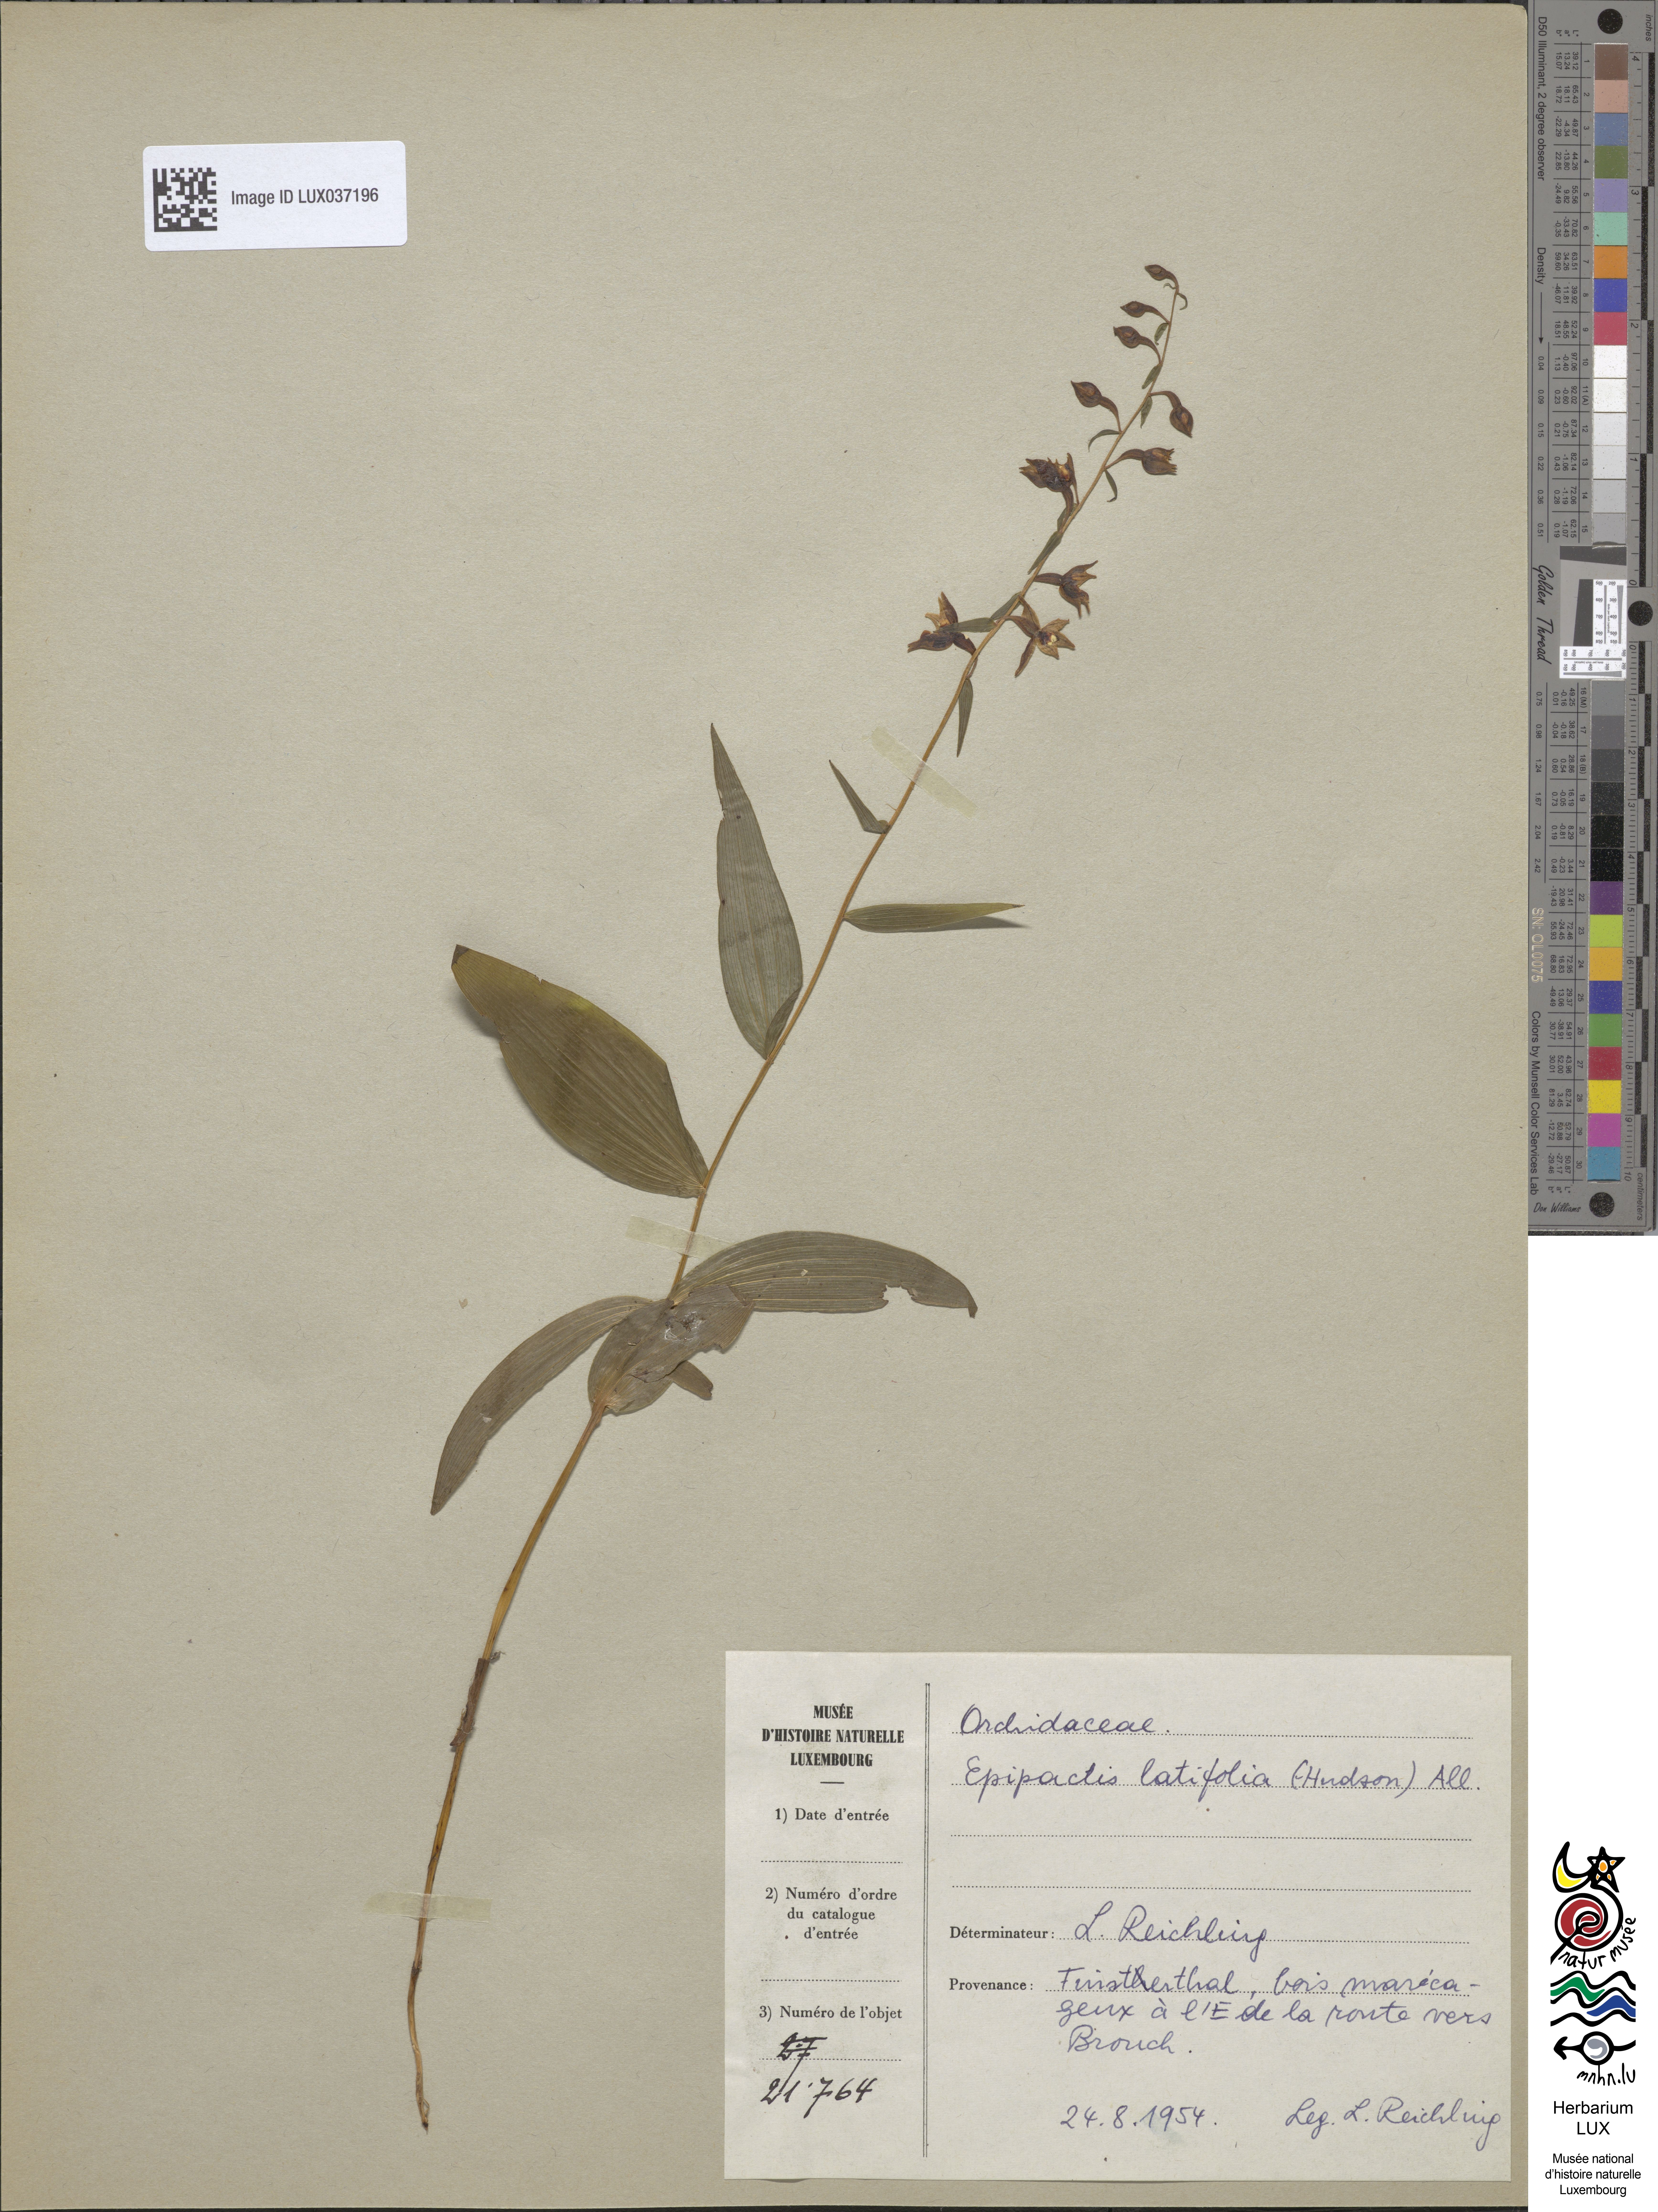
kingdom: Plantae
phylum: Tracheophyta
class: Liliopsida
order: Asparagales
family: Orchidaceae
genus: Epipactis
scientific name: Epipactis helleborine
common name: Broad-leaved helleborine
